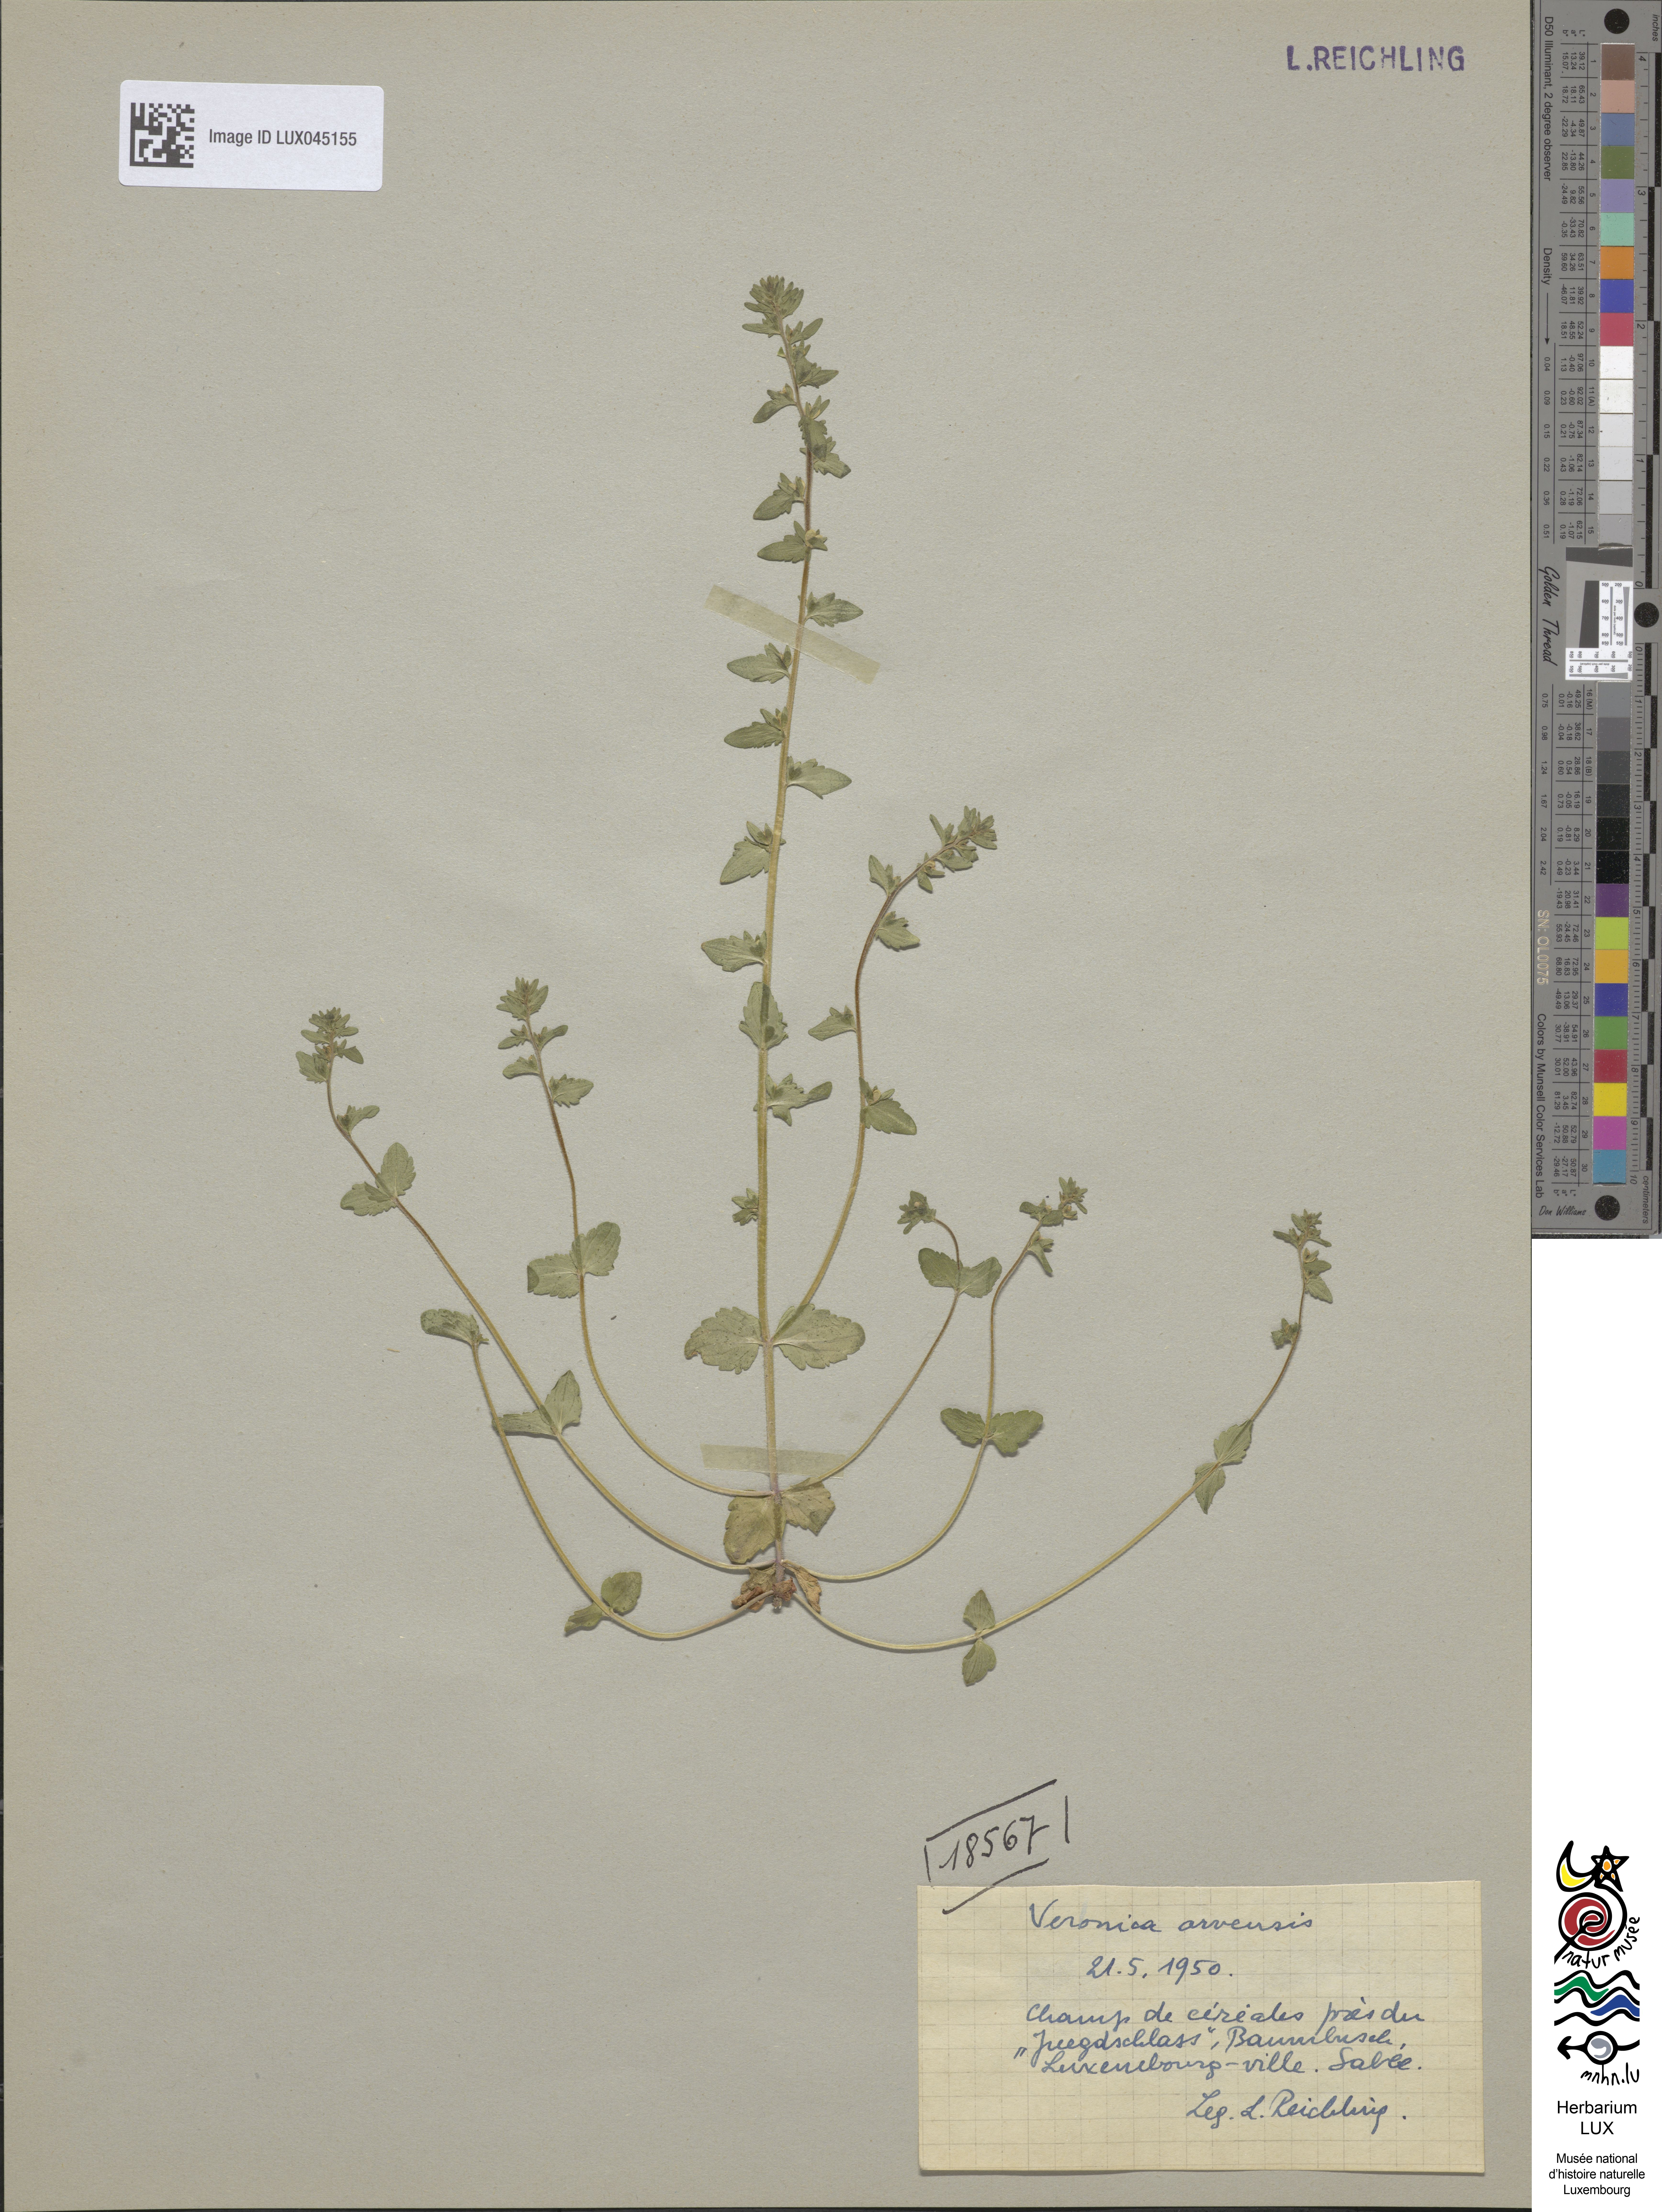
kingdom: Plantae
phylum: Tracheophyta
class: Magnoliopsida
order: Lamiales
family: Plantaginaceae
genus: Veronica
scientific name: Veronica arvensis
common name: Corn speedwell
